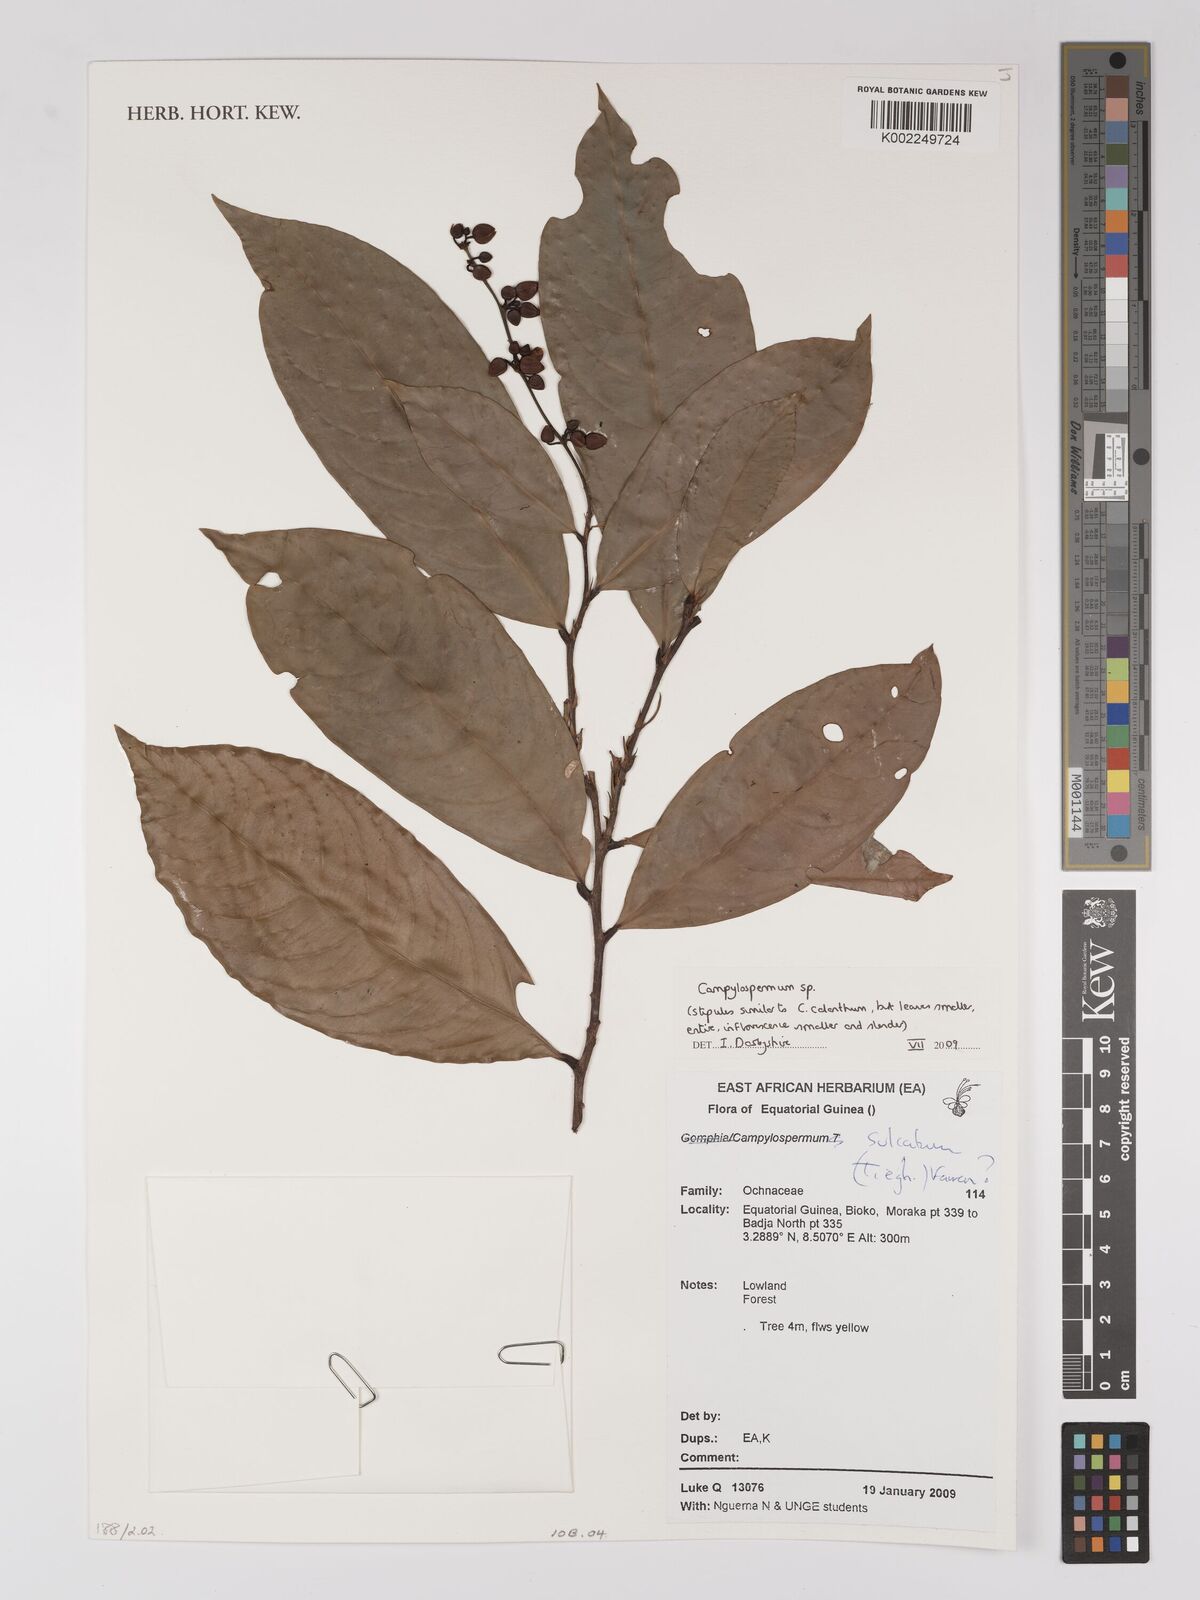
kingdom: Plantae
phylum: Tracheophyta
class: Magnoliopsida
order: Malpighiales
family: Ochnaceae
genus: Campylospermum
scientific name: Campylospermum
